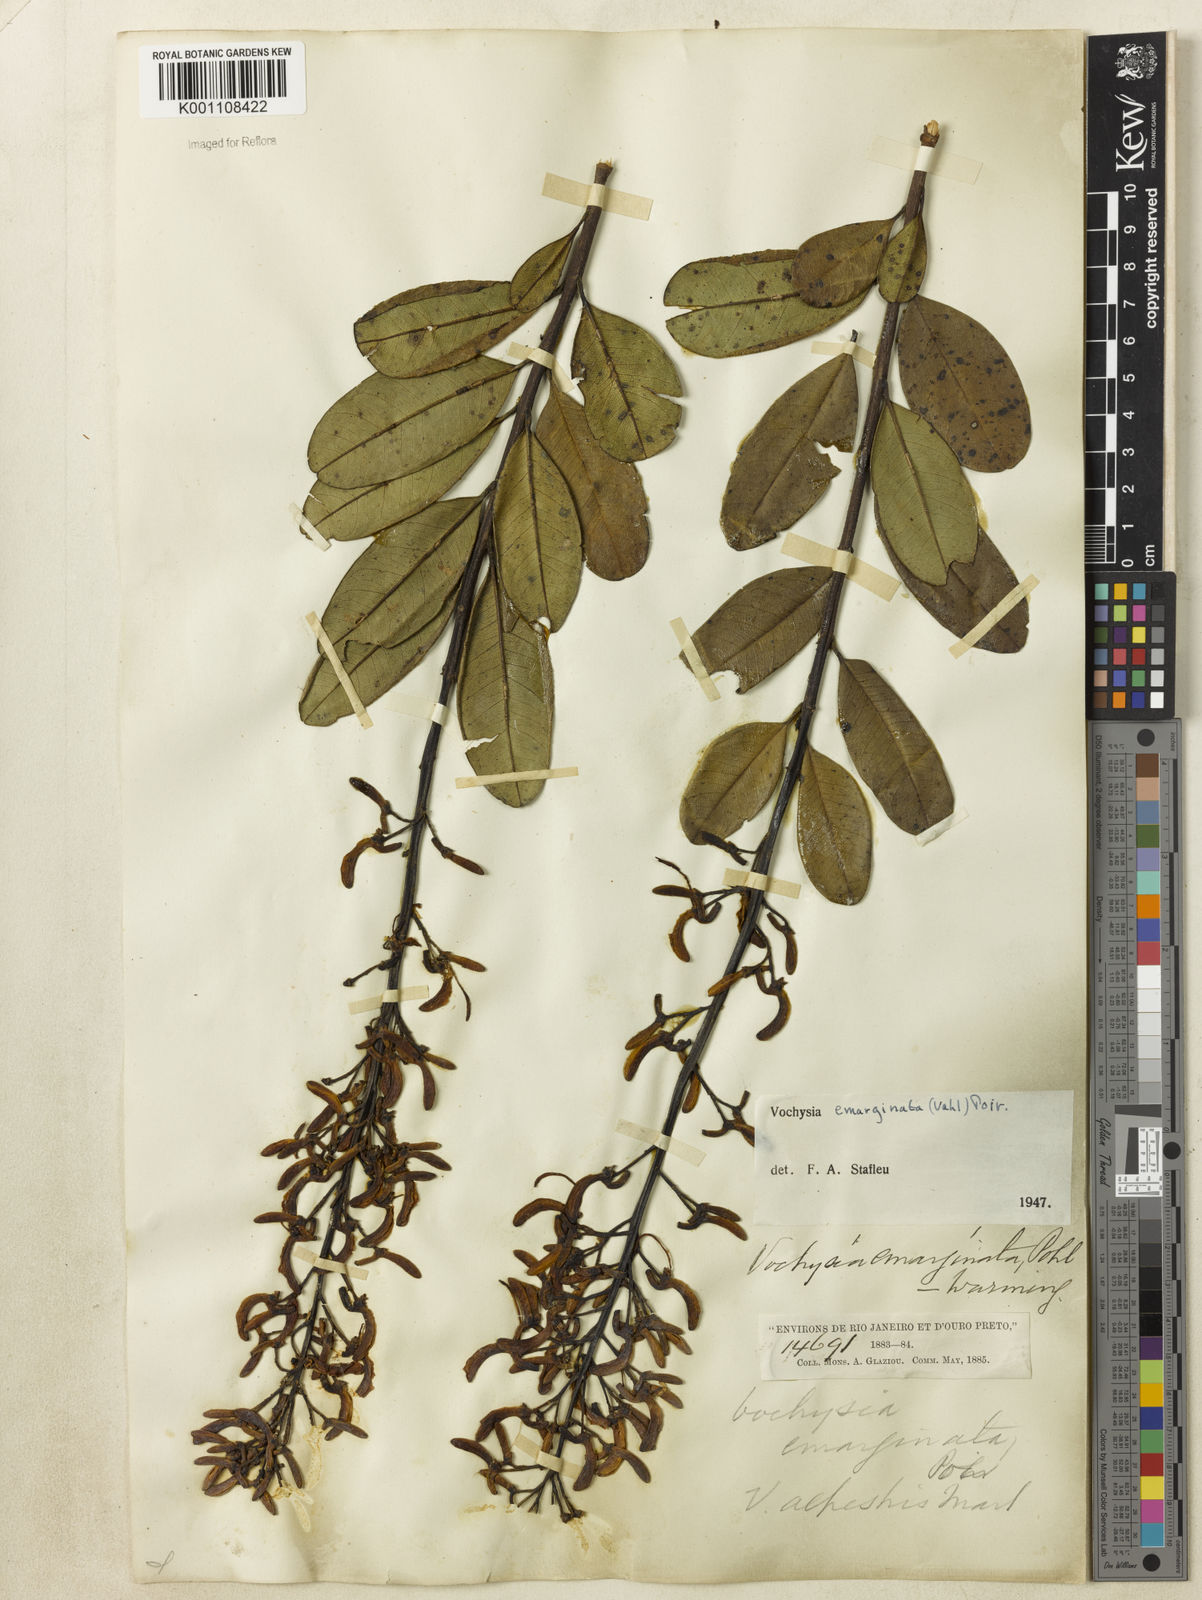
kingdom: Plantae
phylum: Tracheophyta
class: Magnoliopsida
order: Myrtales
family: Vochysiaceae
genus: Vochysia
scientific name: Vochysia
